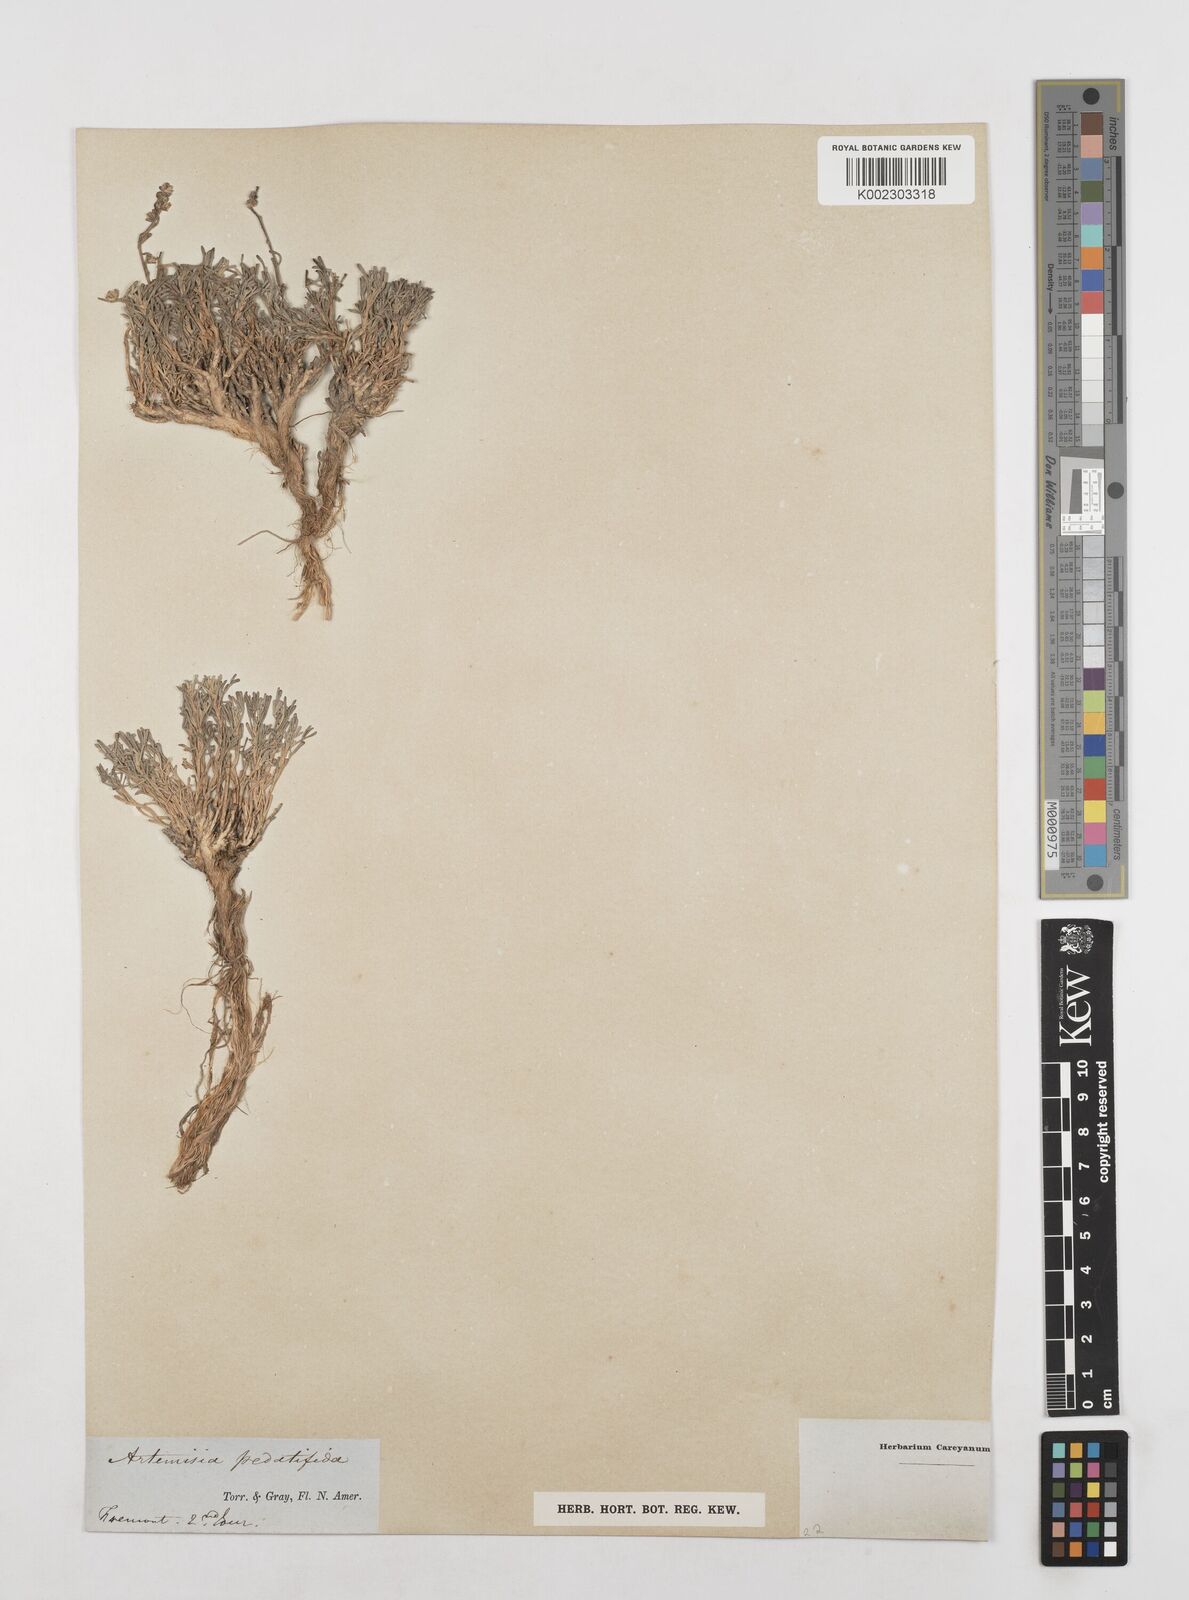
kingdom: Plantae
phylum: Tracheophyta
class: Magnoliopsida
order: Asterales
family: Asteraceae
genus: Artemisia
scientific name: Artemisia desertorum
